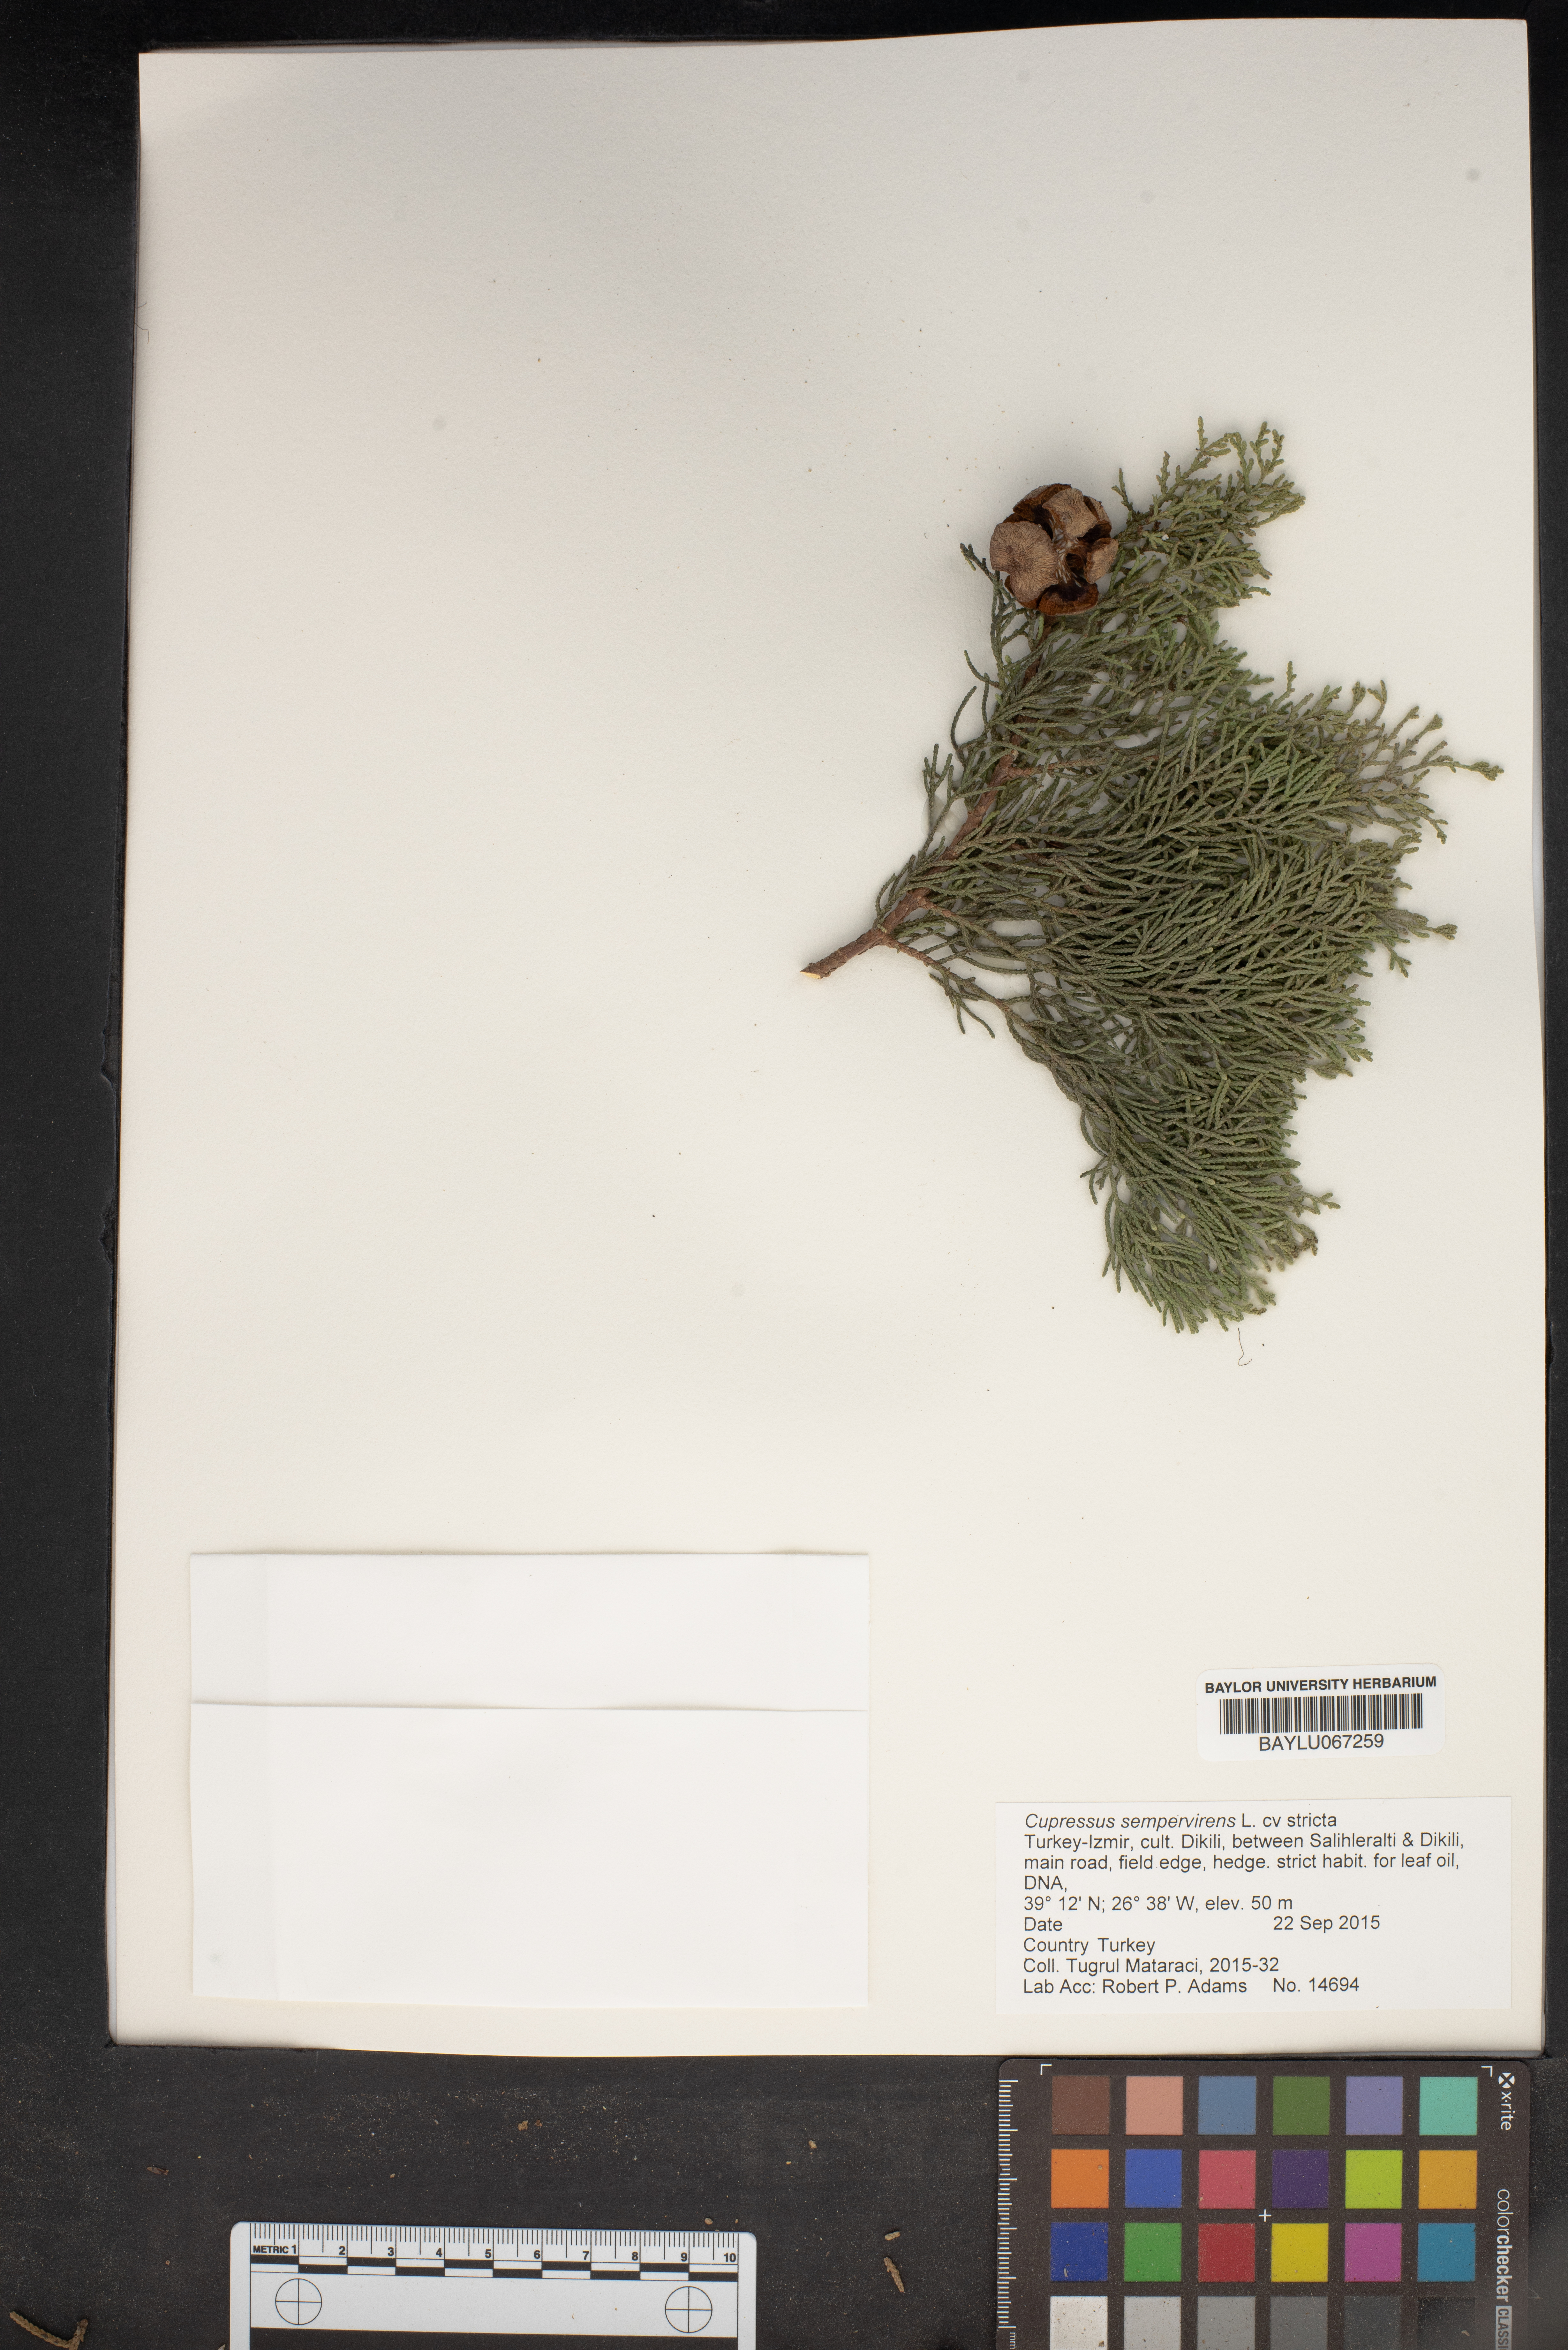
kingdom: Plantae
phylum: Tracheophyta
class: Pinopsida
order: Pinales
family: Cupressaceae
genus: Cupressus
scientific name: Cupressus sempervirens
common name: Italian cypress
